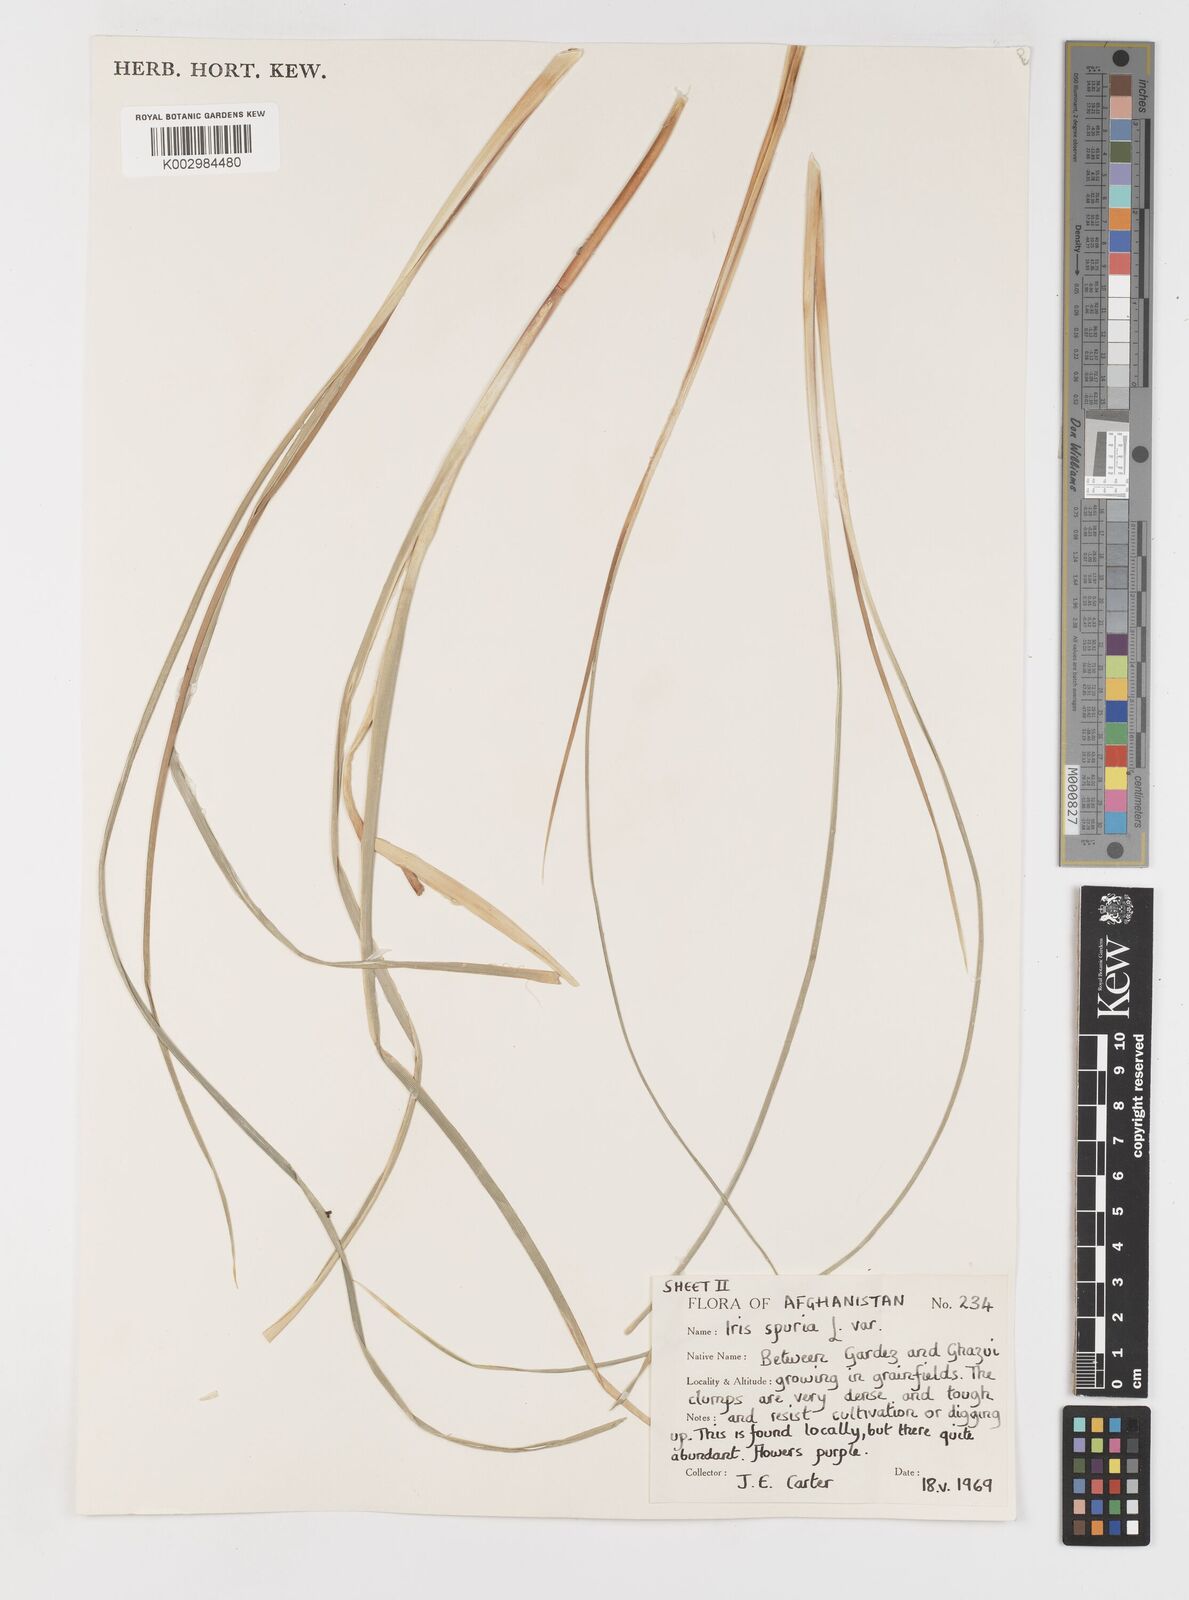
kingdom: Plantae
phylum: Tracheophyta
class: Liliopsida
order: Asparagales
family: Iridaceae
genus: Iris
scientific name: Iris songarica
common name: Songar iris
